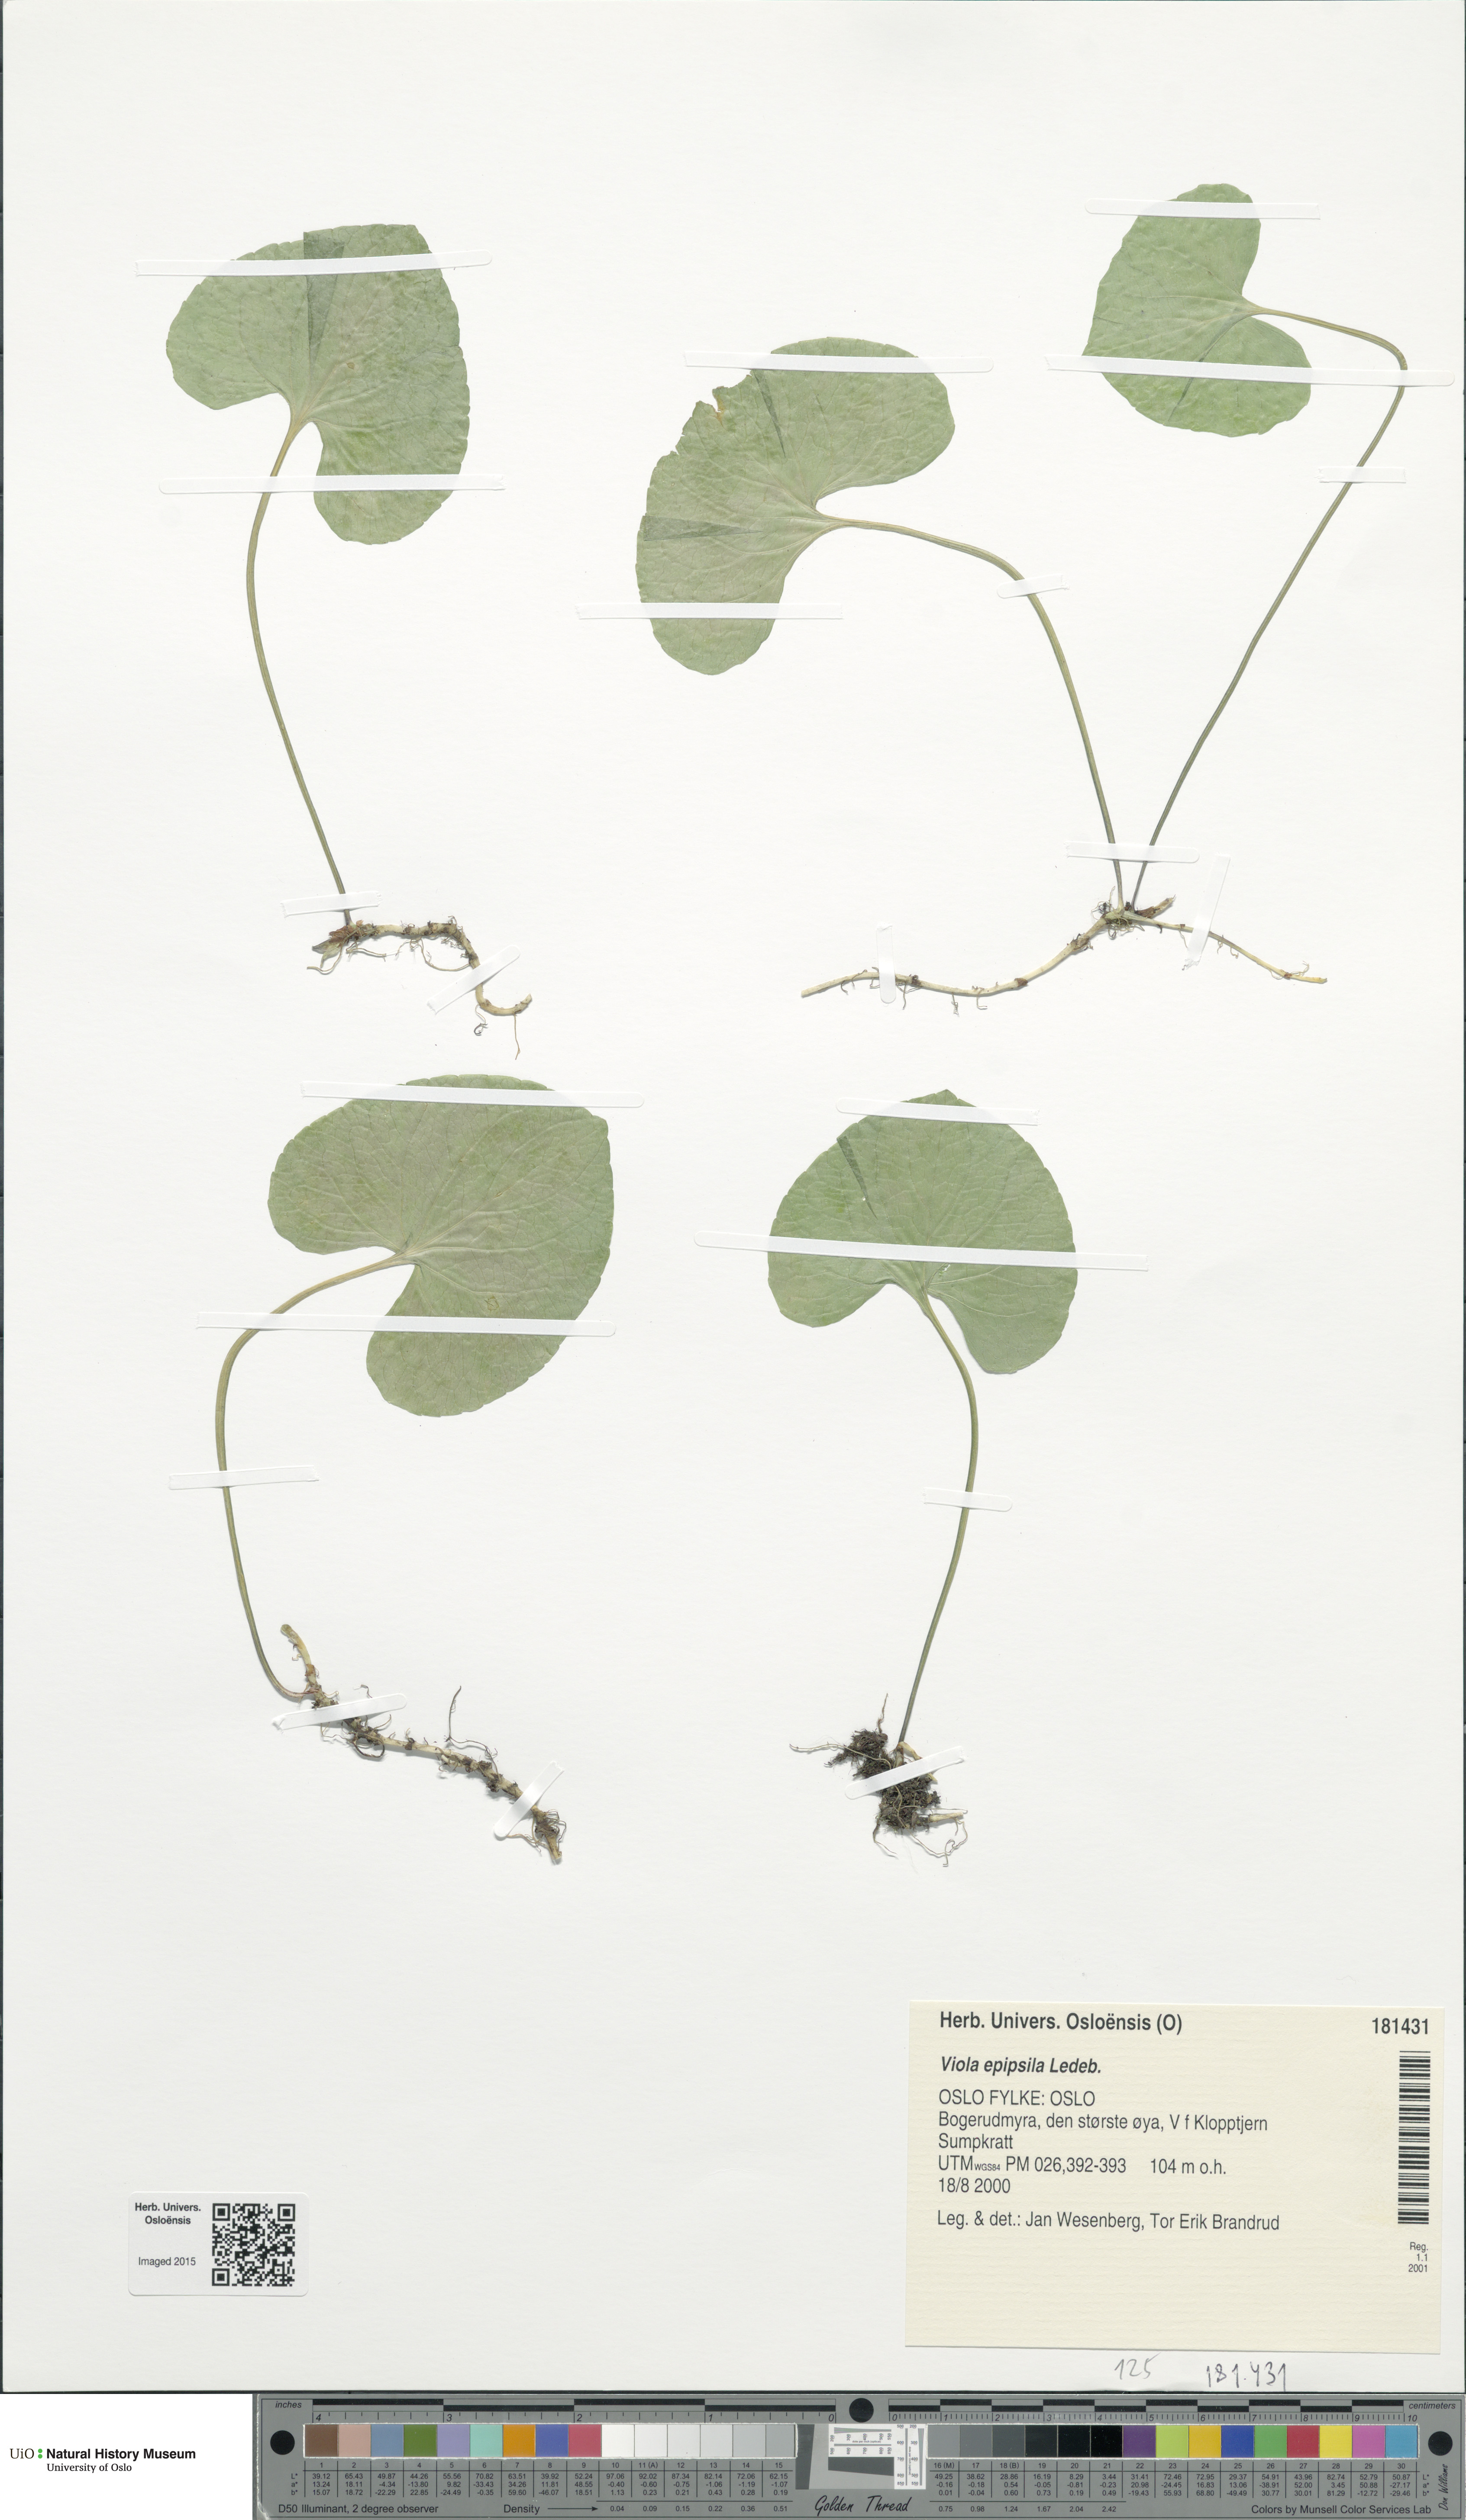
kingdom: Plantae
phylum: Tracheophyta
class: Magnoliopsida
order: Malpighiales
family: Violaceae
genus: Viola
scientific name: Viola epipsila
